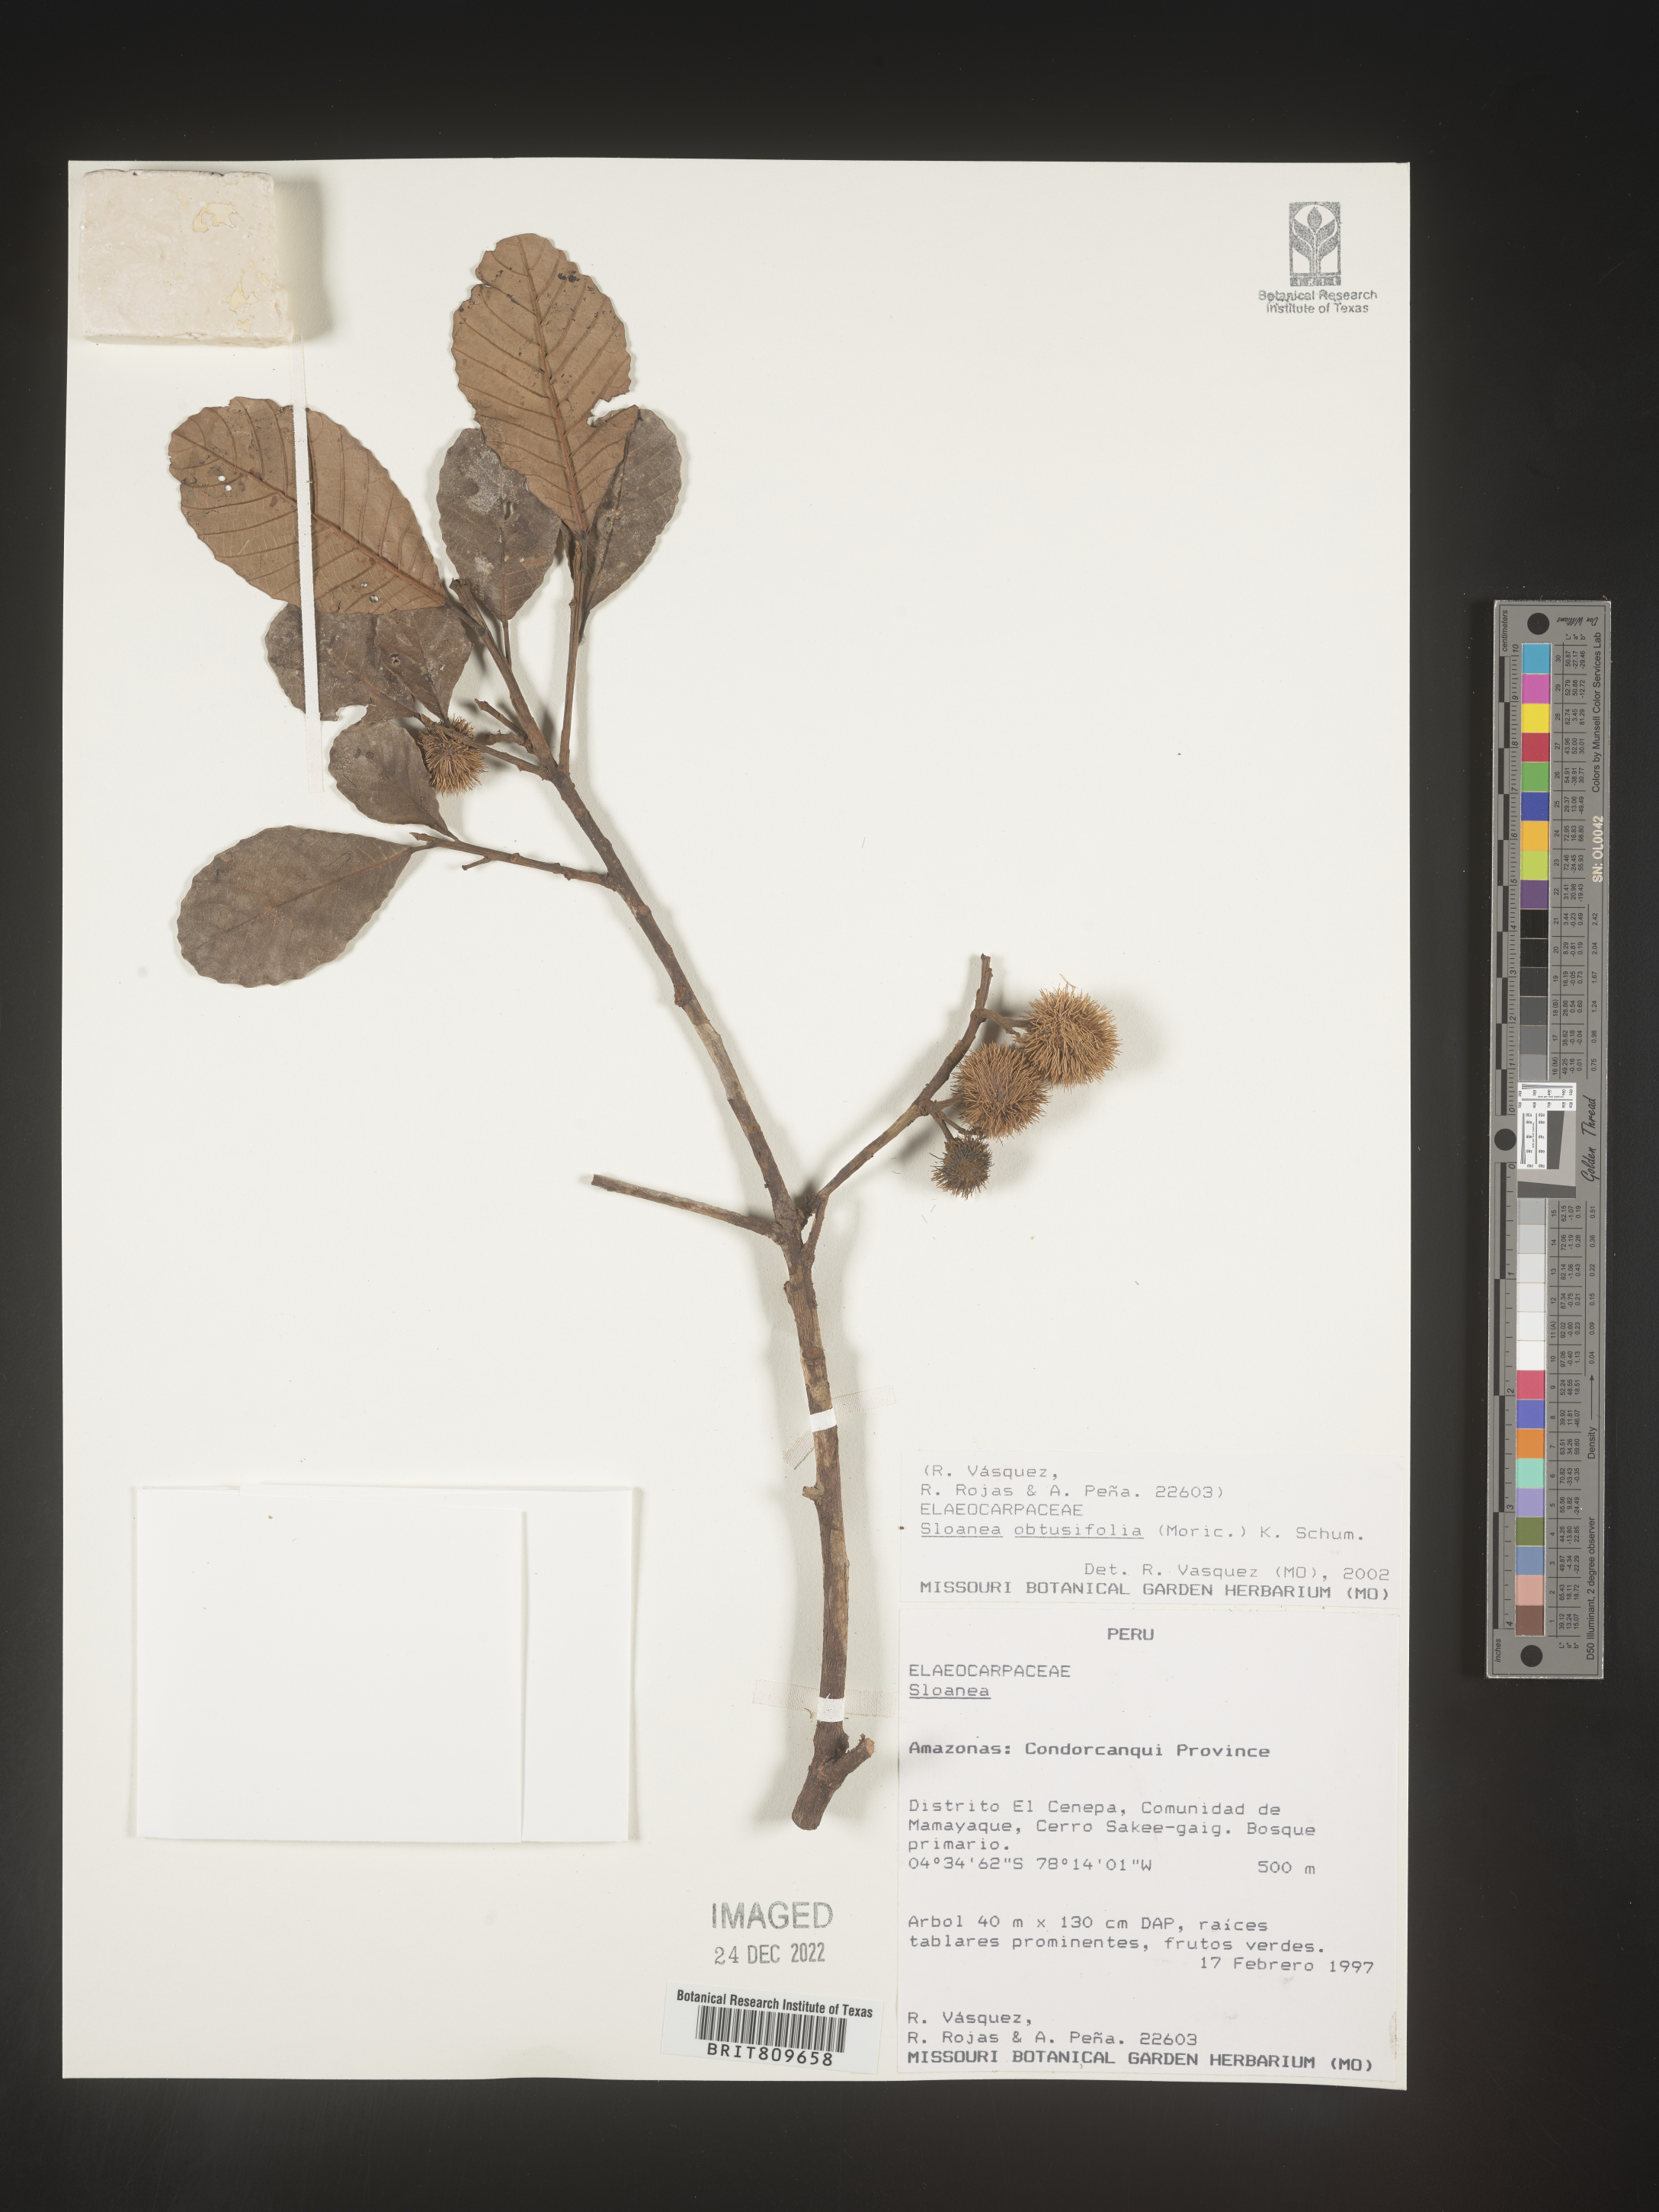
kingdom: Plantae
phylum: Tracheophyta
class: Magnoliopsida
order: Oxalidales
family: Elaeocarpaceae
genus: Sloanea
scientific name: Sloanea
